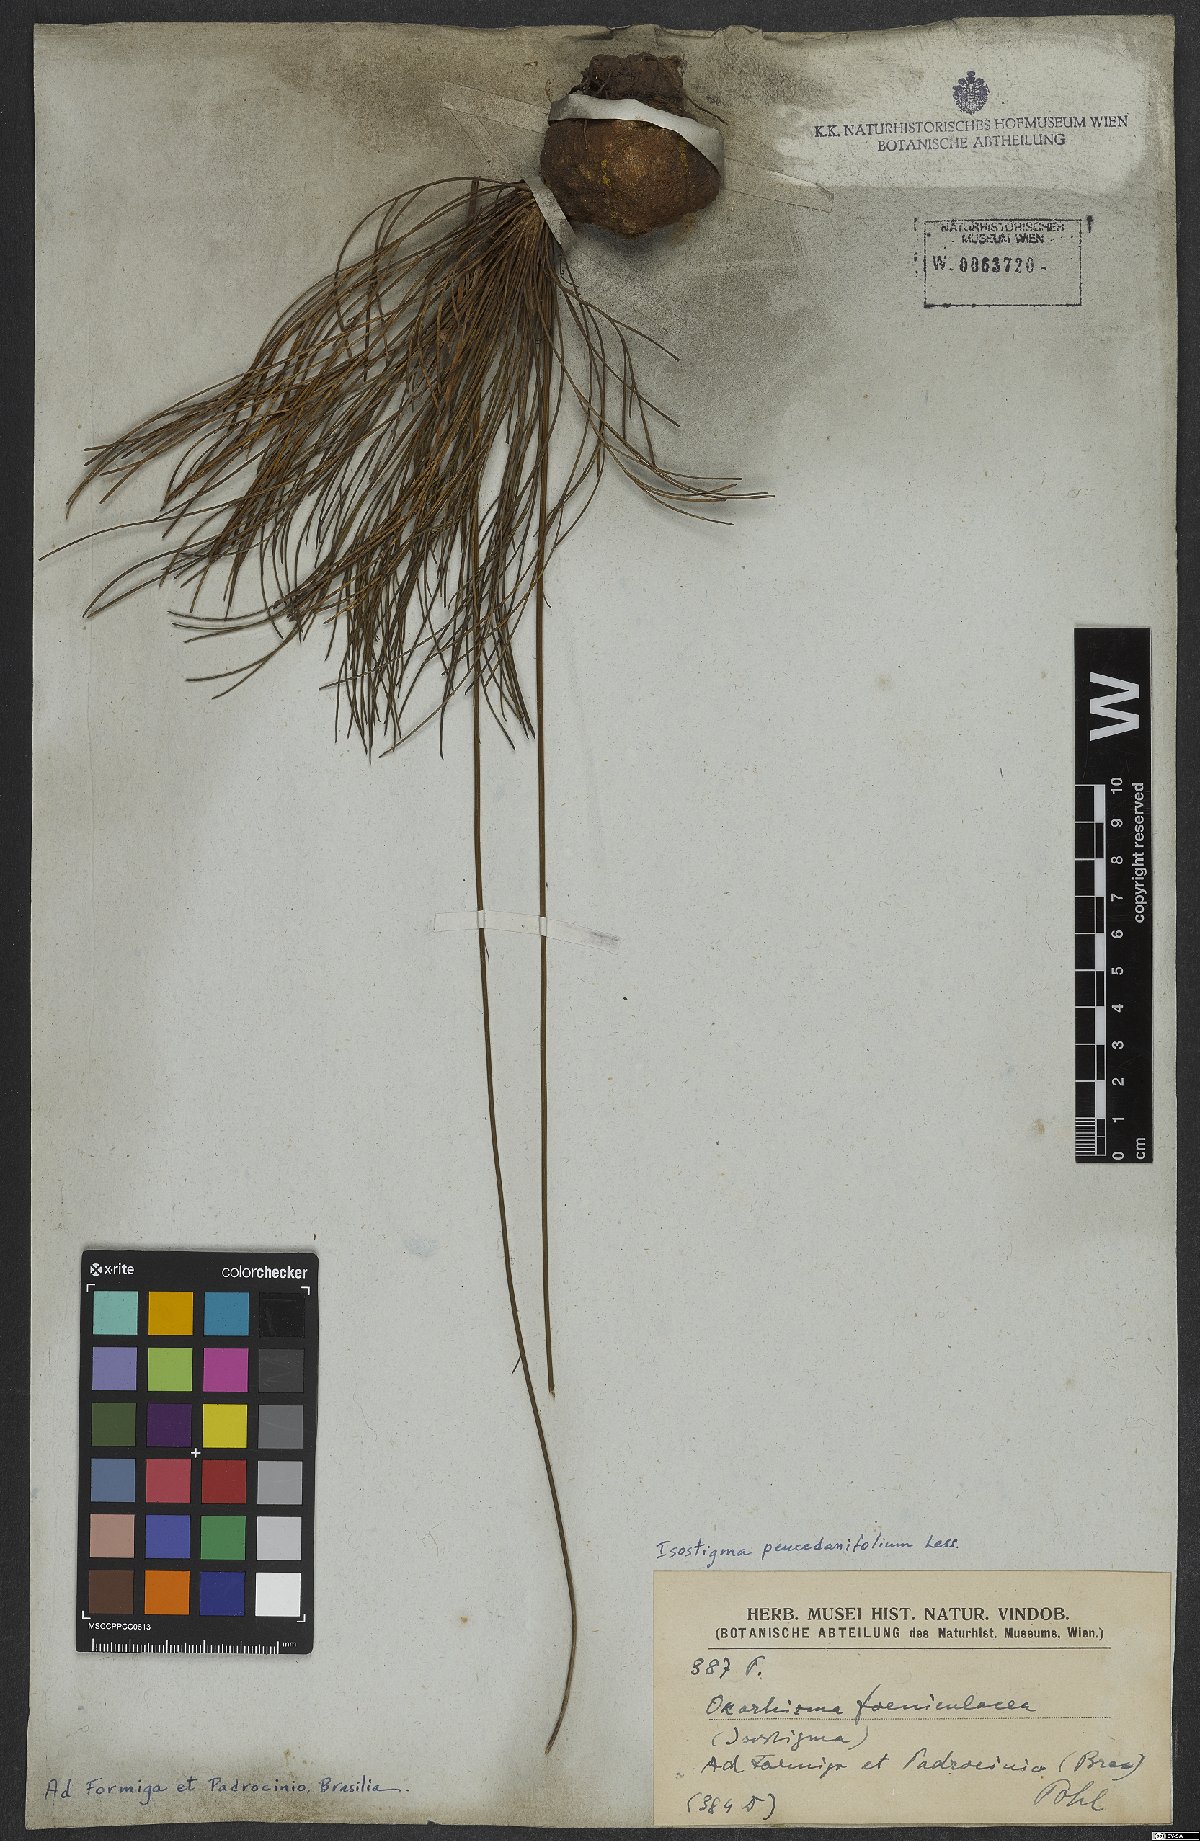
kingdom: Plantae
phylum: Tracheophyta
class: Magnoliopsida
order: Asterales
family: Asteraceae
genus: Isostigma
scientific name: Isostigma peucedanifolium
